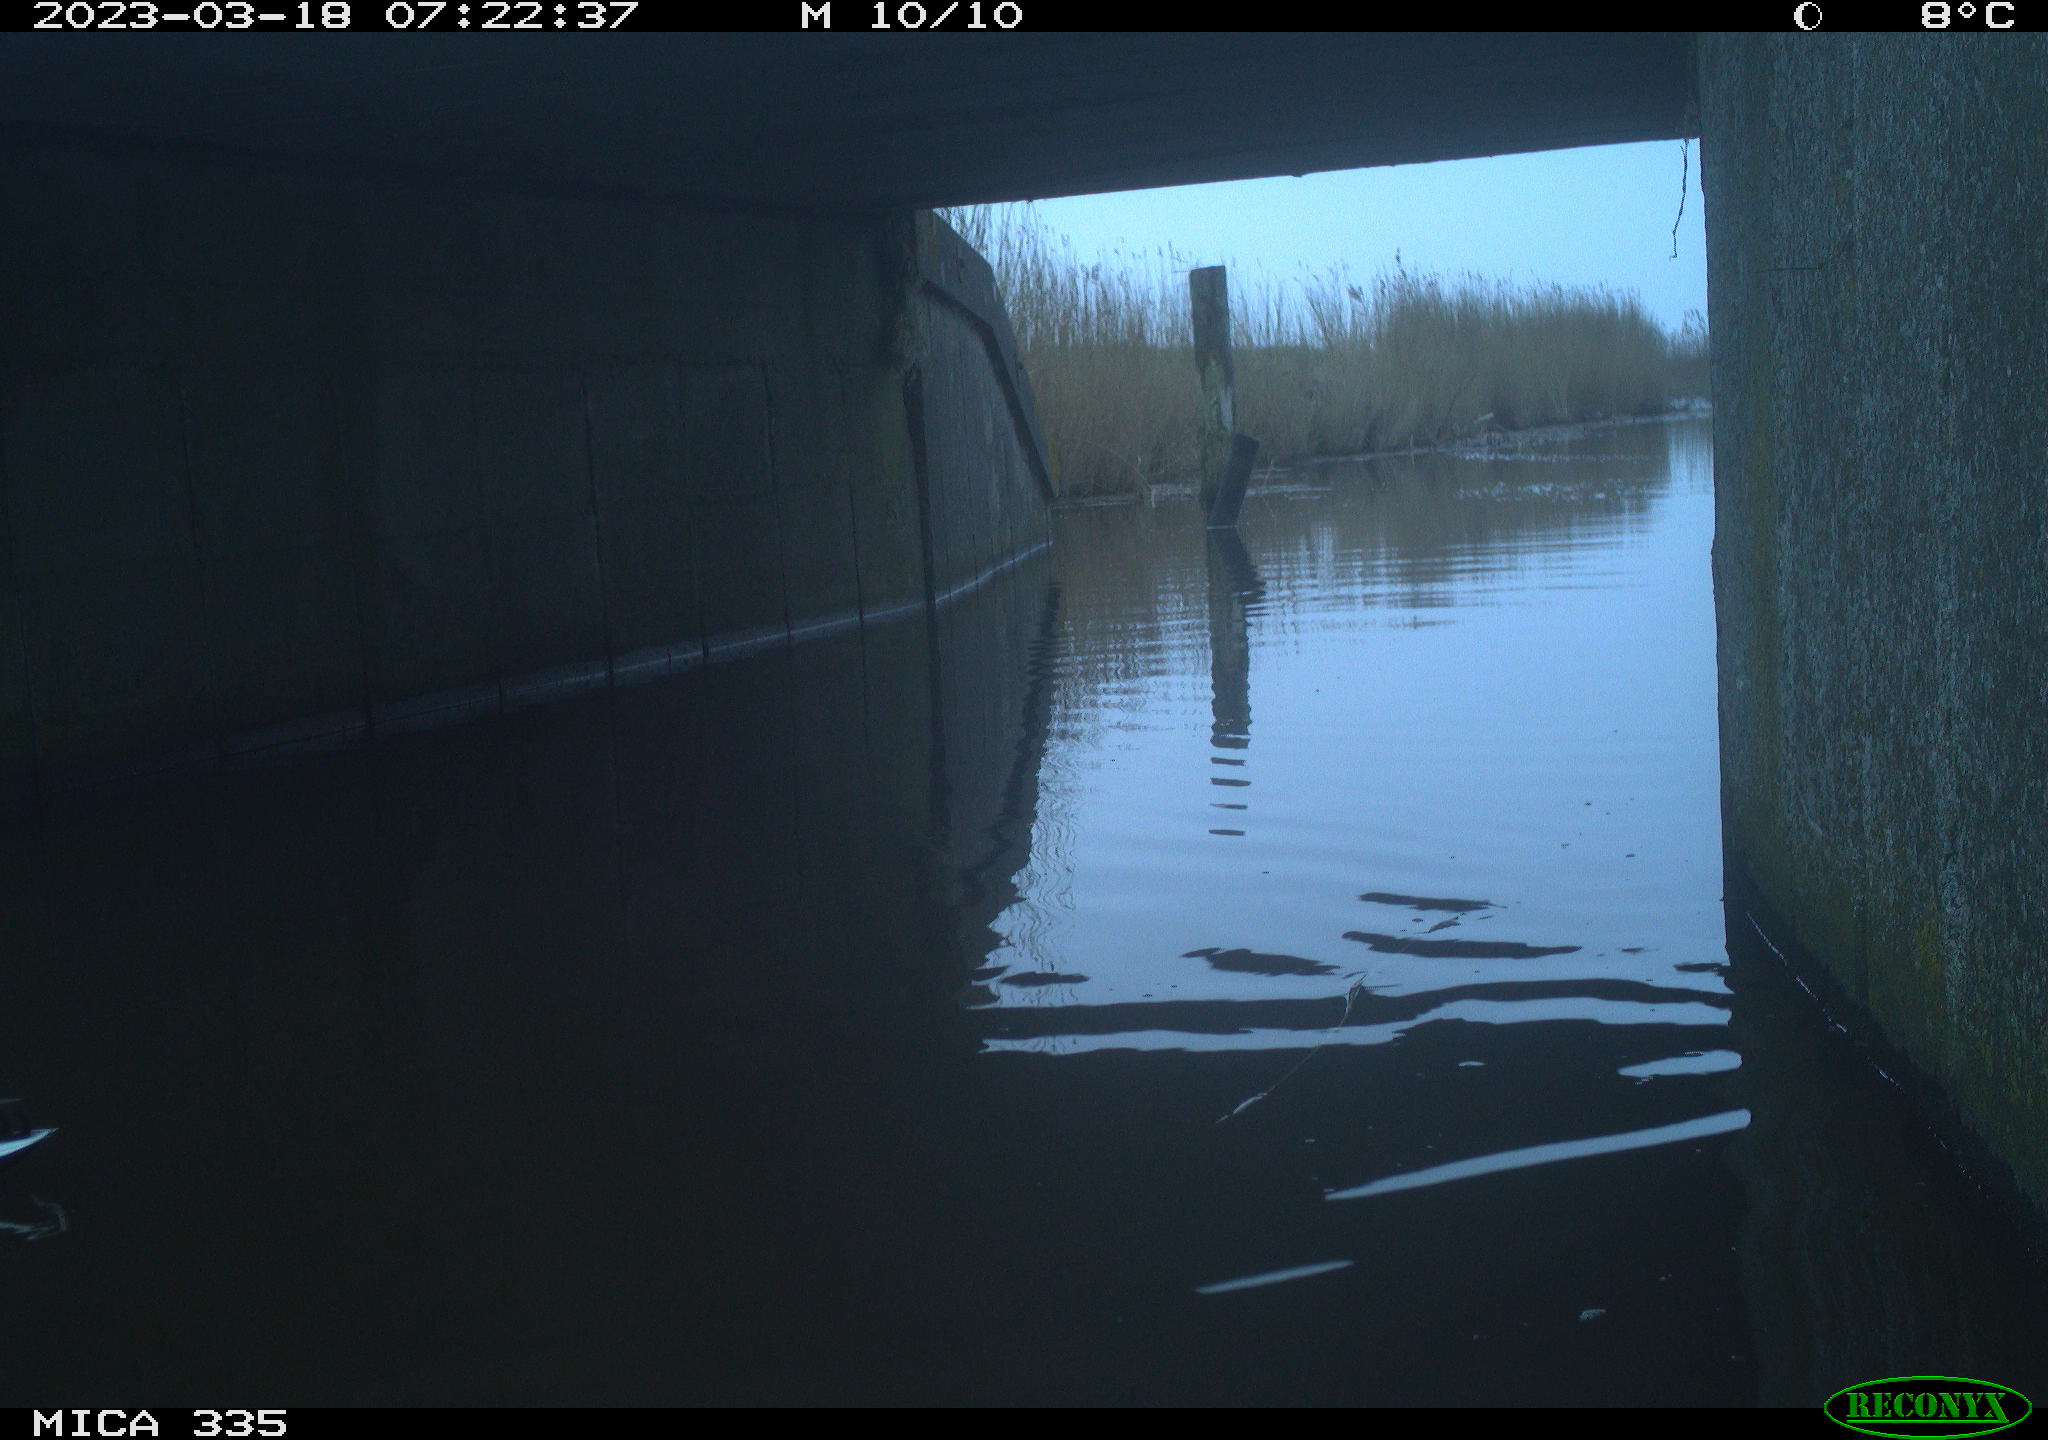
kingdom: Animalia
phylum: Chordata
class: Aves
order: Anseriformes
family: Anatidae
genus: Anas
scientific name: Anas
